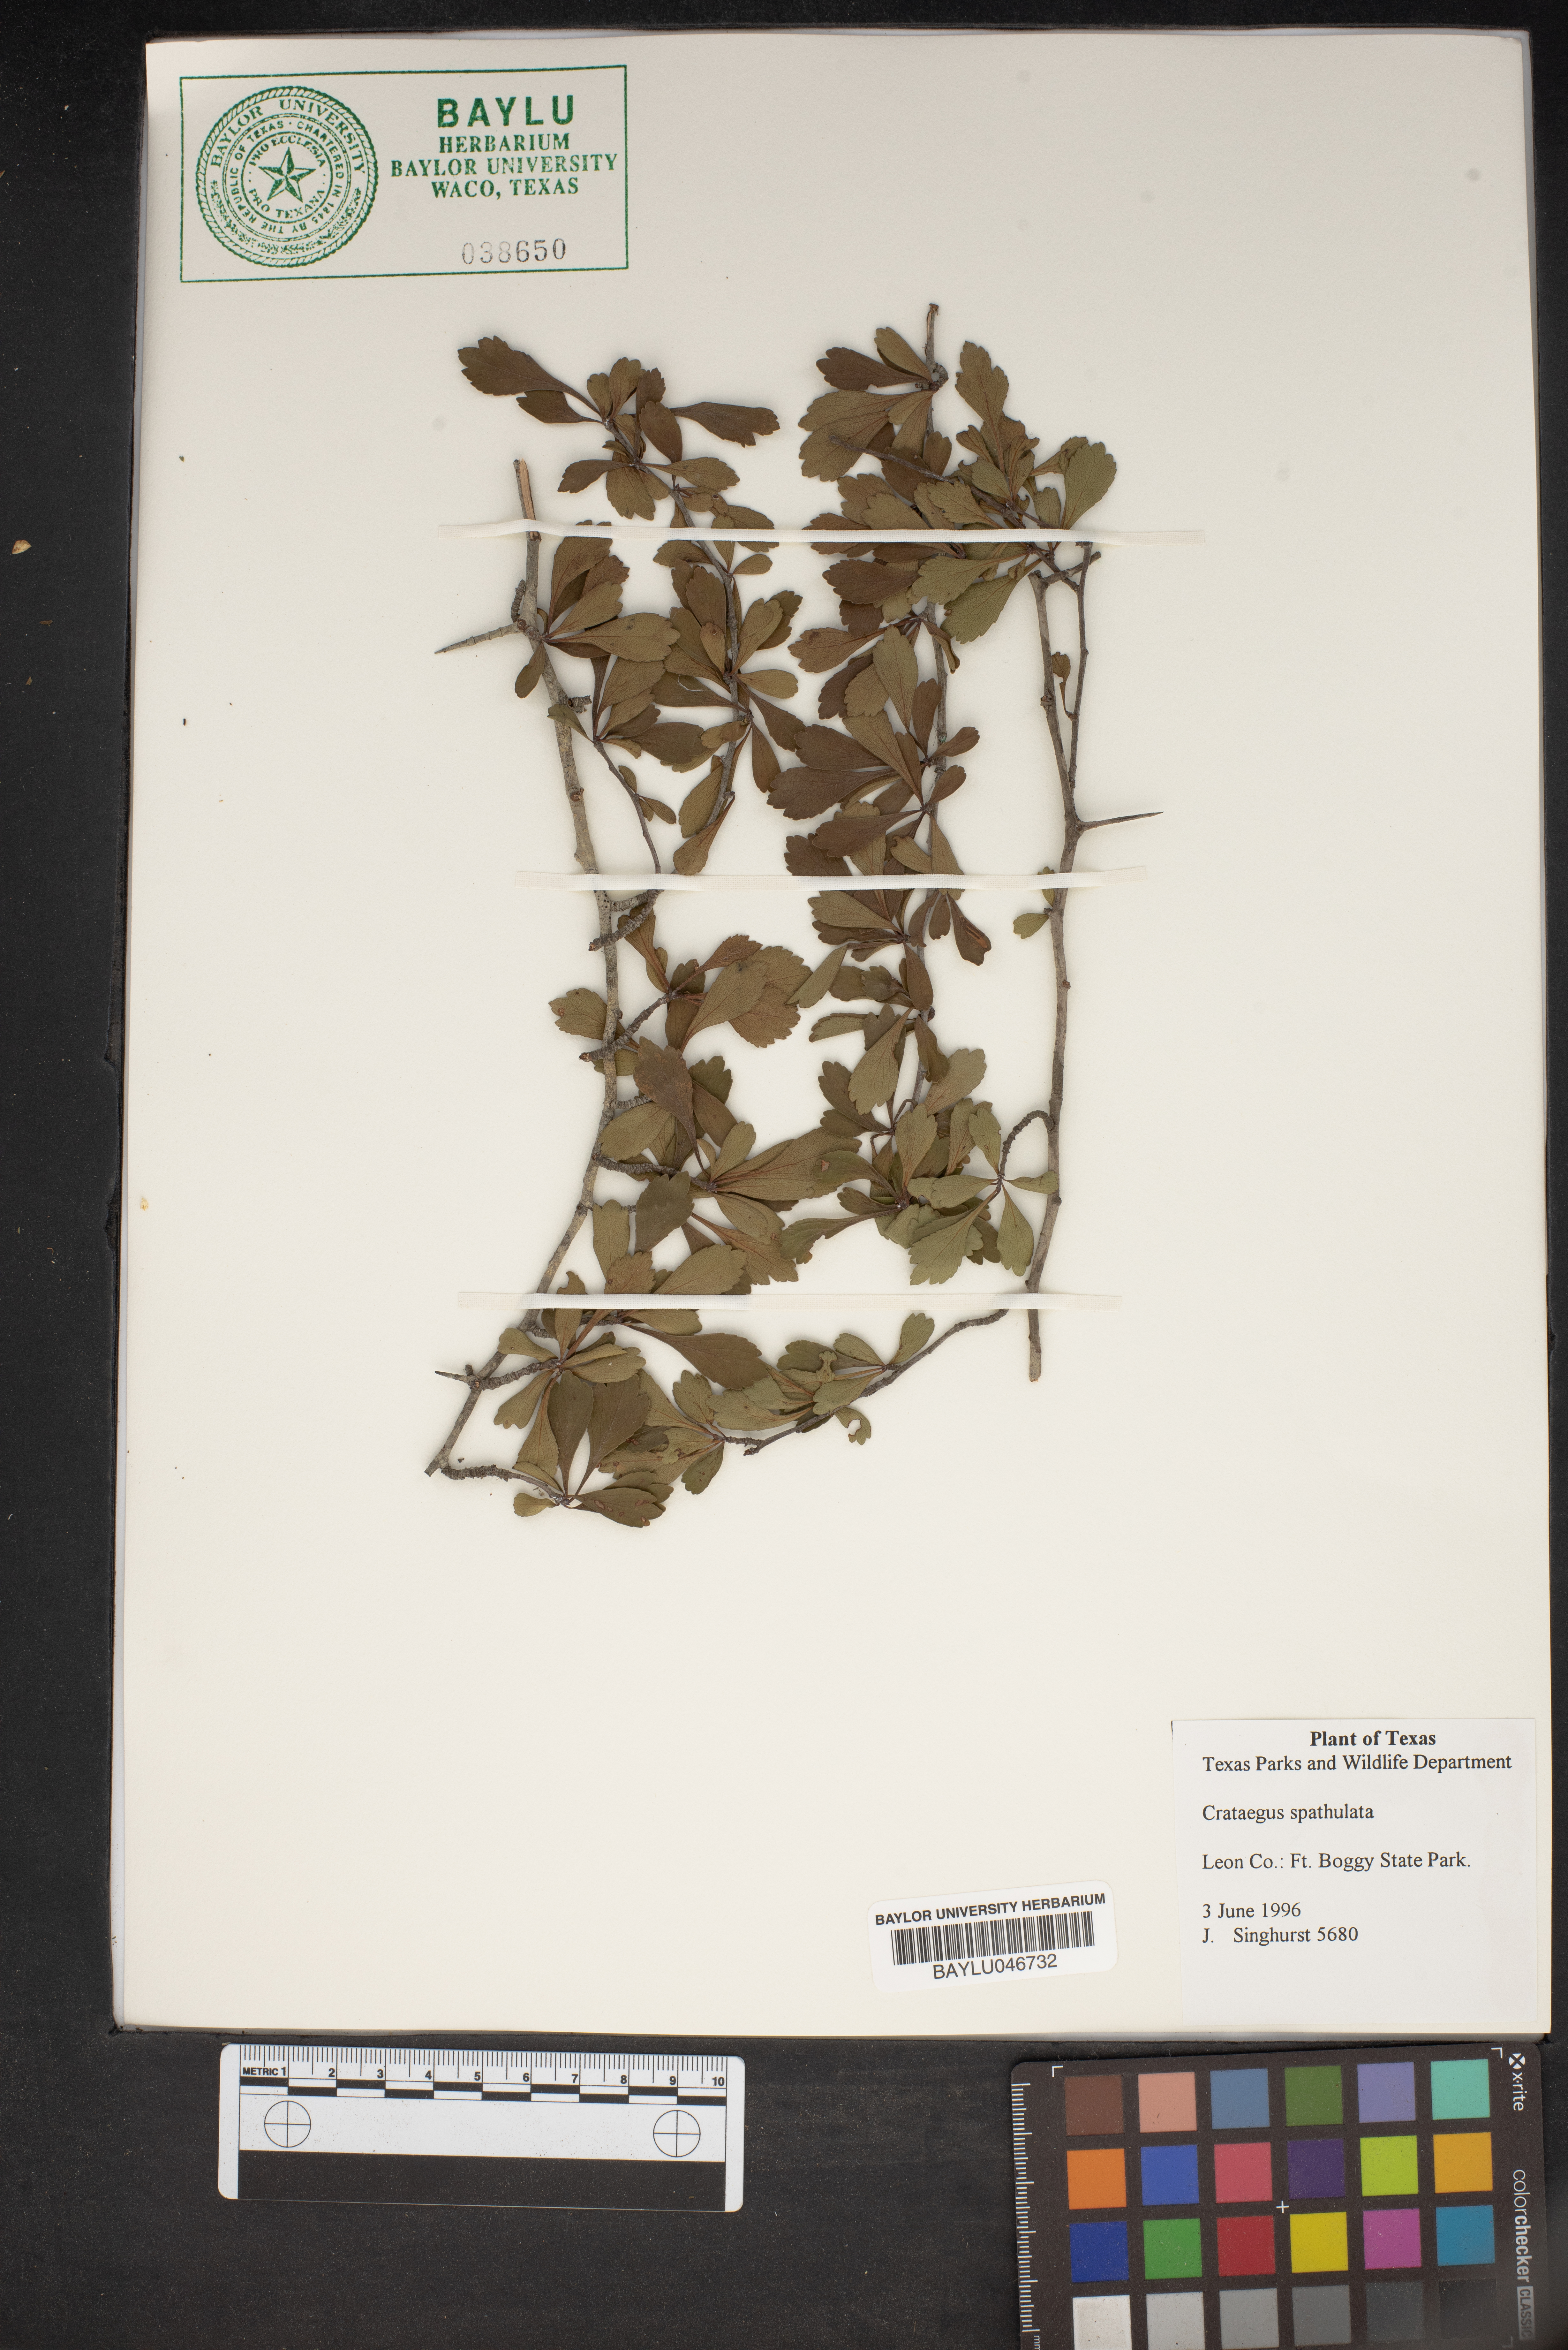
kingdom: Plantae
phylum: Tracheophyta
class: Magnoliopsida
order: Rosales
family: Rosaceae
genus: Crataegus
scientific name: Crataegus spathulata
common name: Littlehip hawthorn
